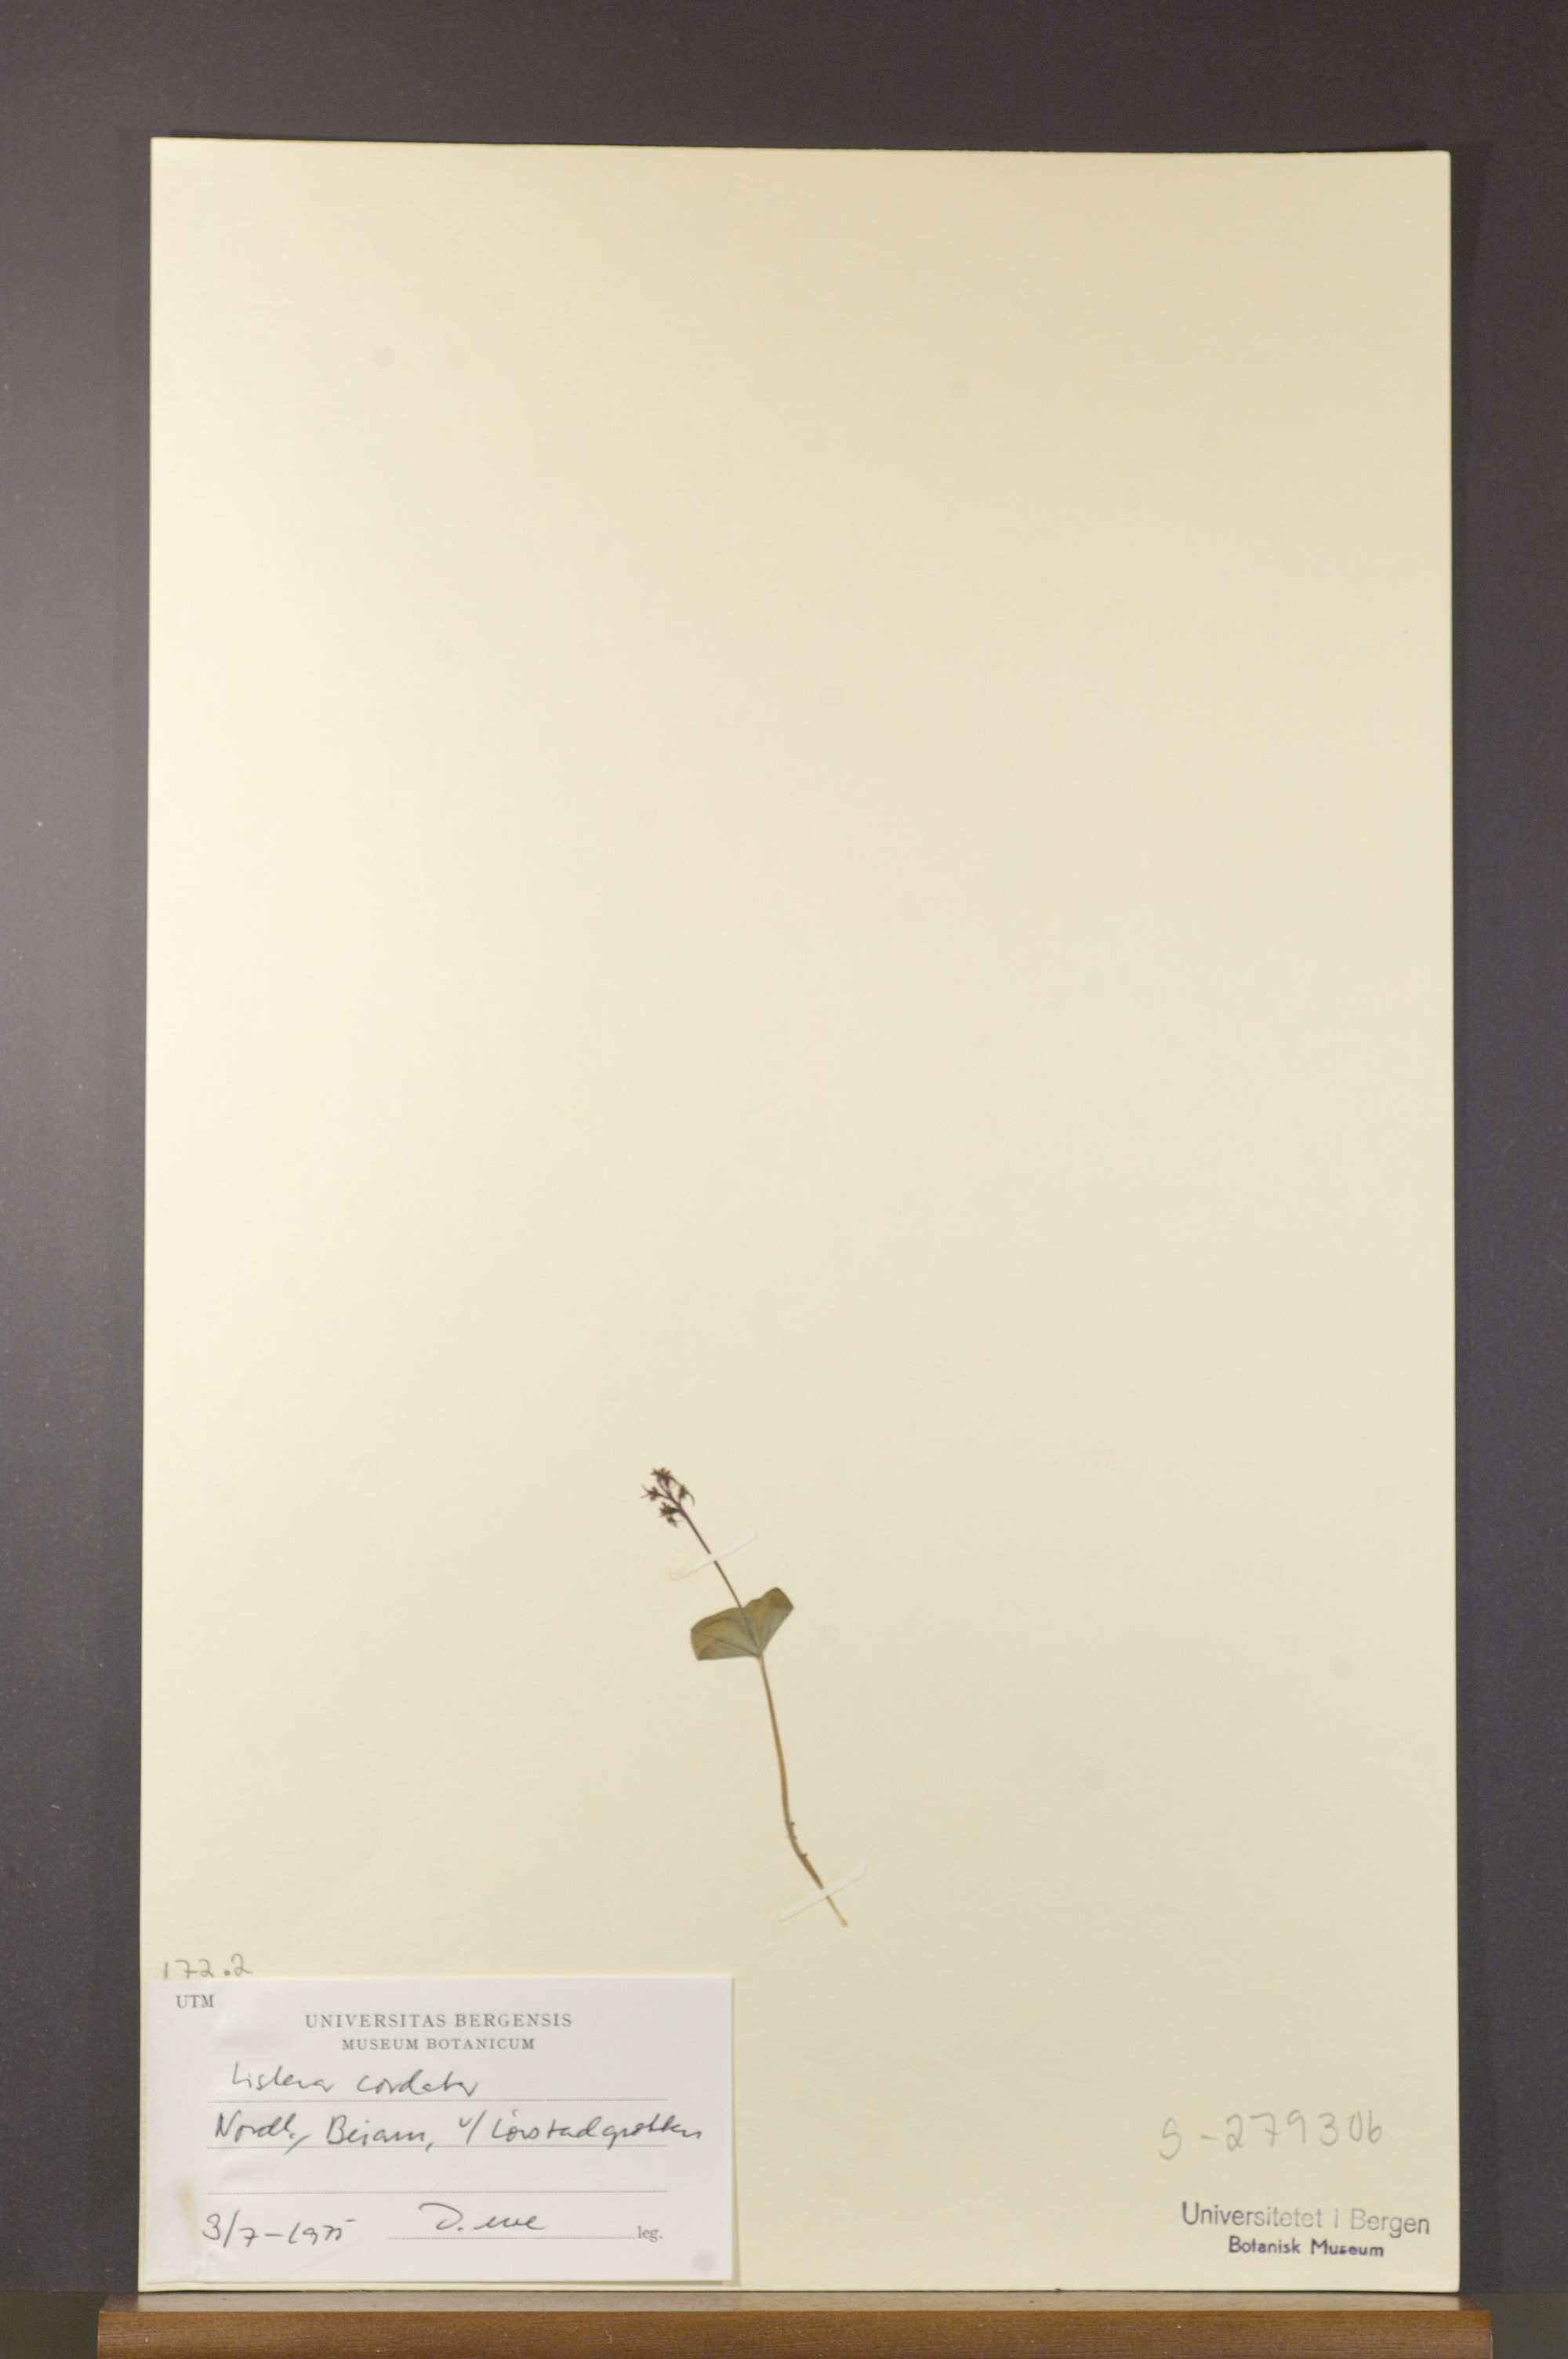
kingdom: Plantae
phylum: Tracheophyta
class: Liliopsida
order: Asparagales
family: Orchidaceae
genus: Neottia
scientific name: Neottia cordata
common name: Lesser twayblade
